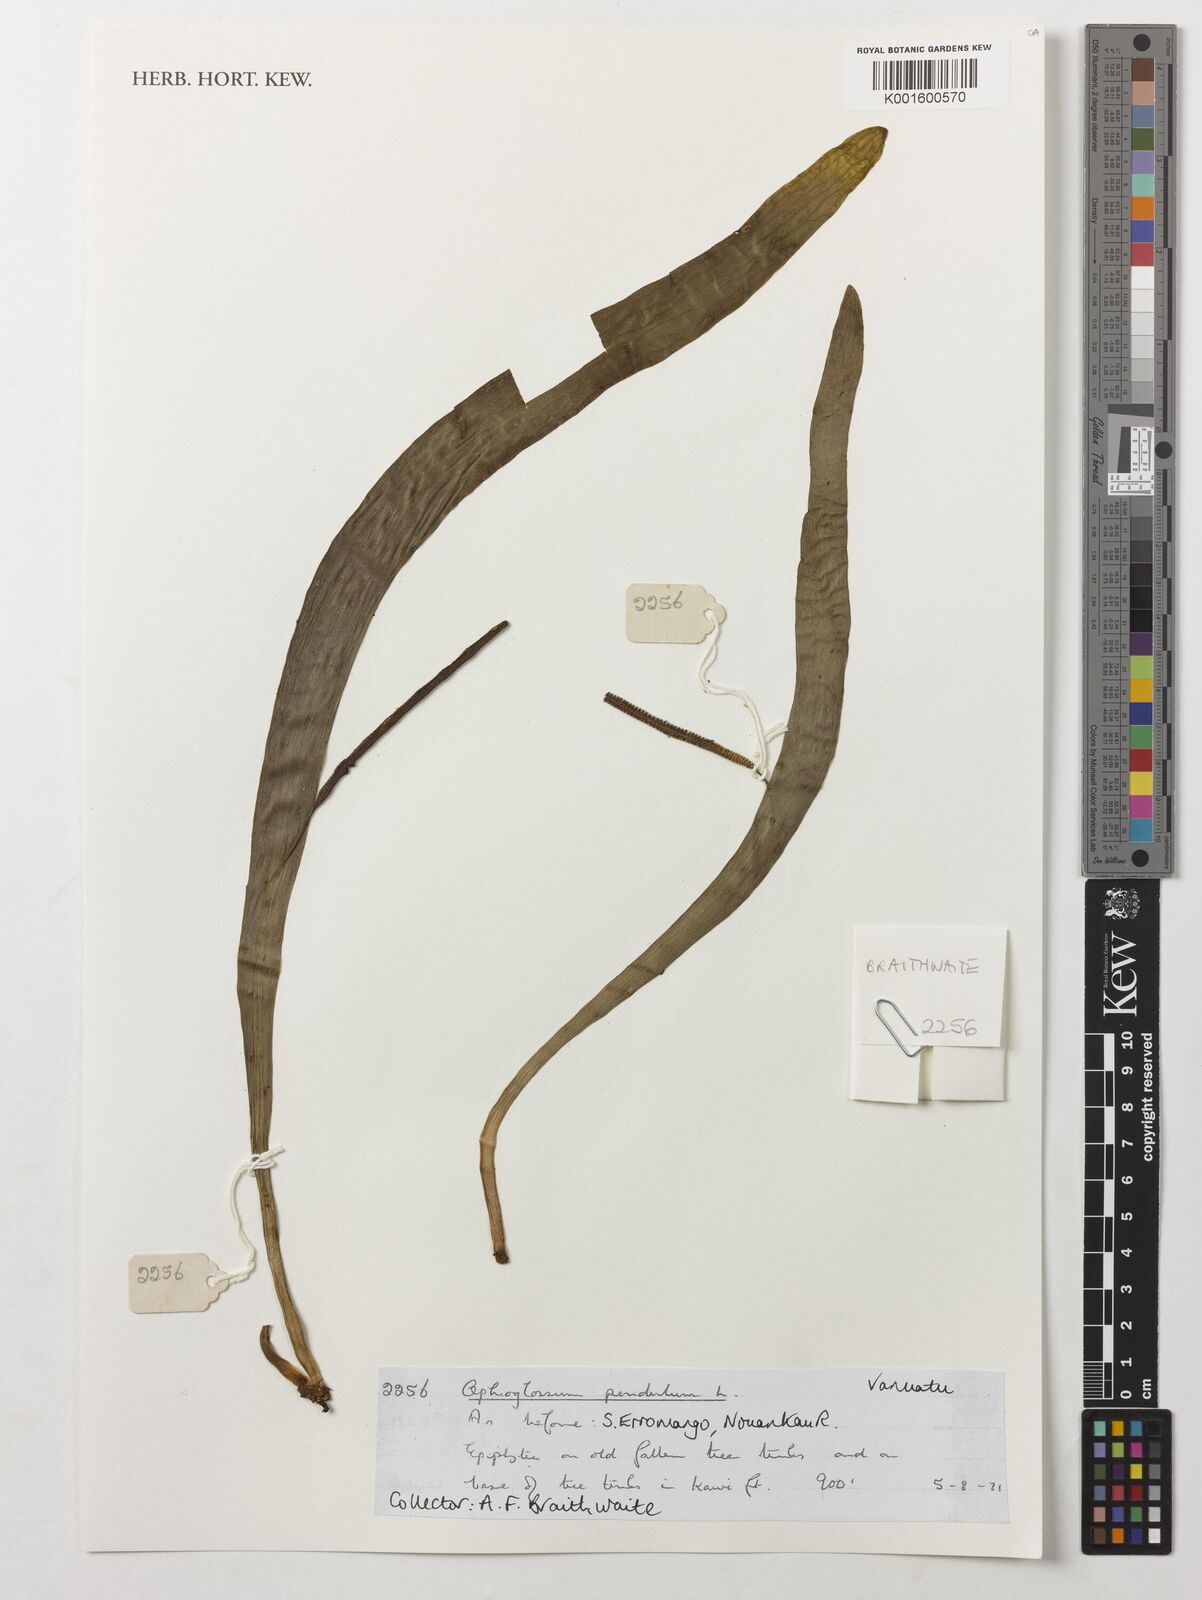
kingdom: Plantae
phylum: Tracheophyta
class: Polypodiopsida
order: Ophioglossales
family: Ophioglossaceae
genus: Ophioderma
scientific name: Ophioderma pendulum
